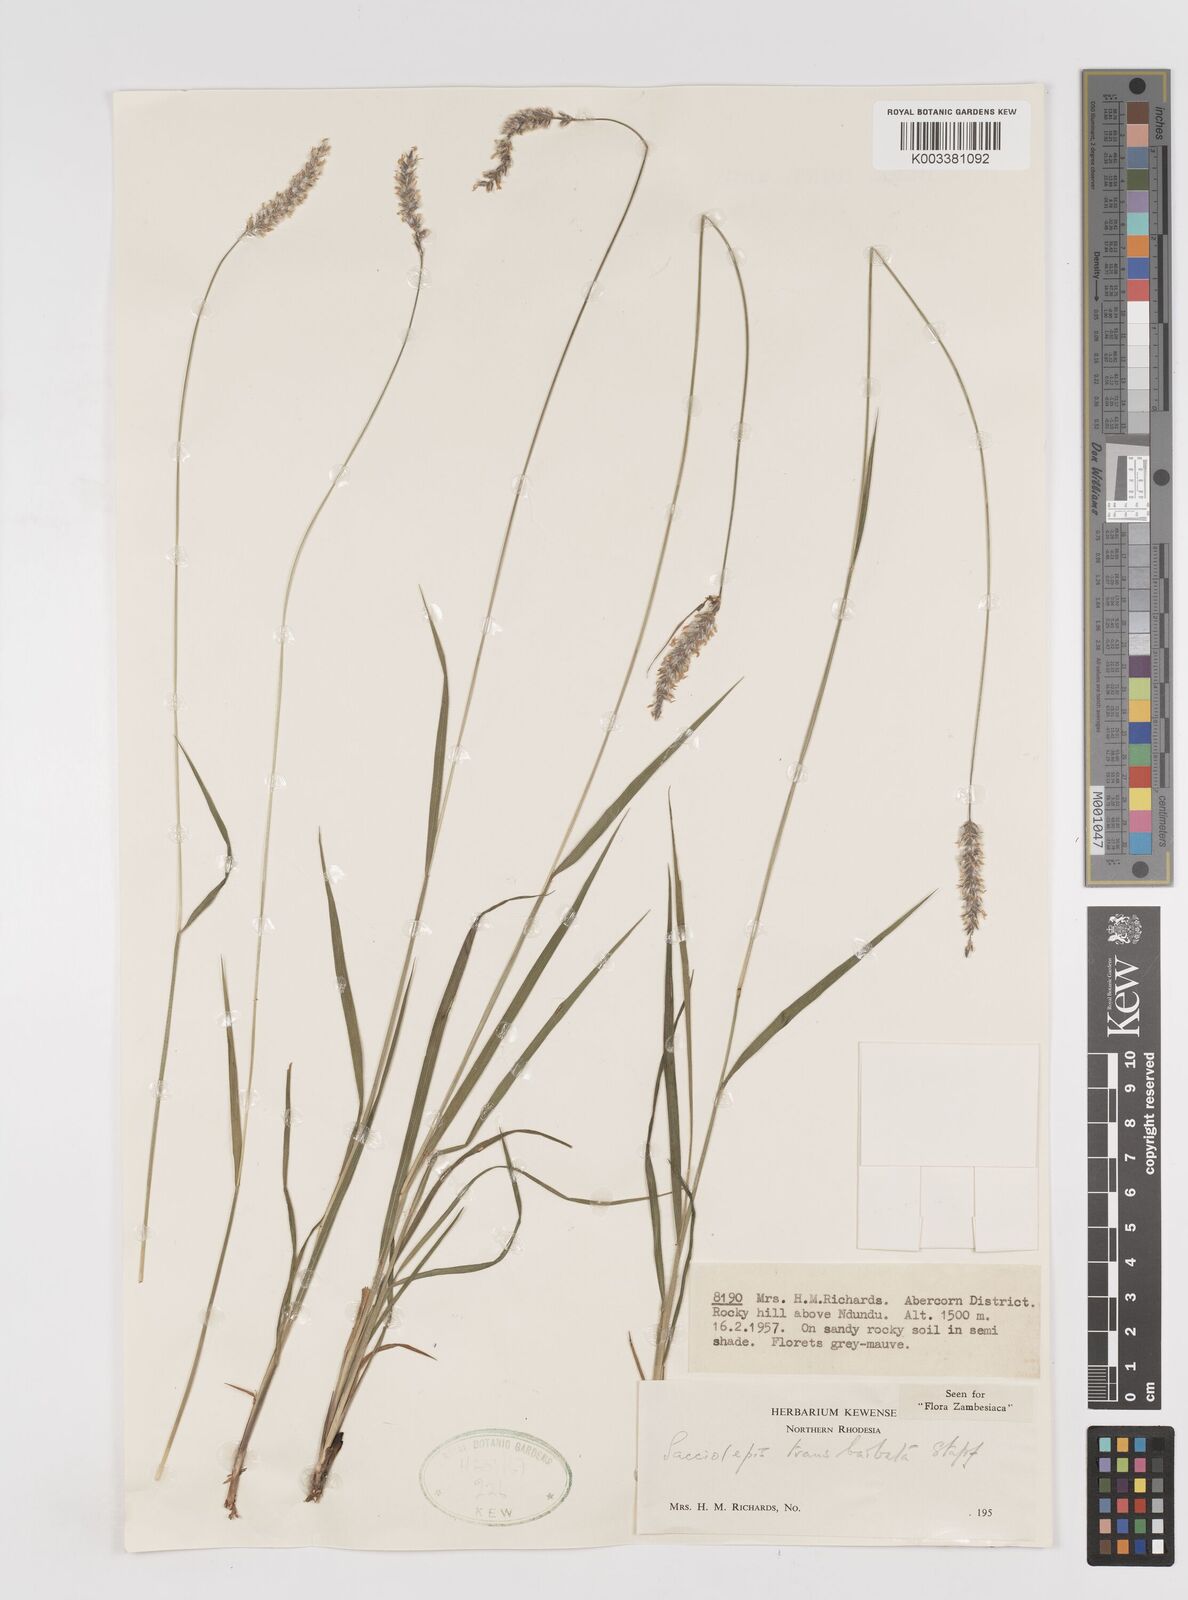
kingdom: Plantae
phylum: Tracheophyta
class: Liliopsida
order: Poales
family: Poaceae
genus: Sacciolepis
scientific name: Sacciolepis transbarbata
